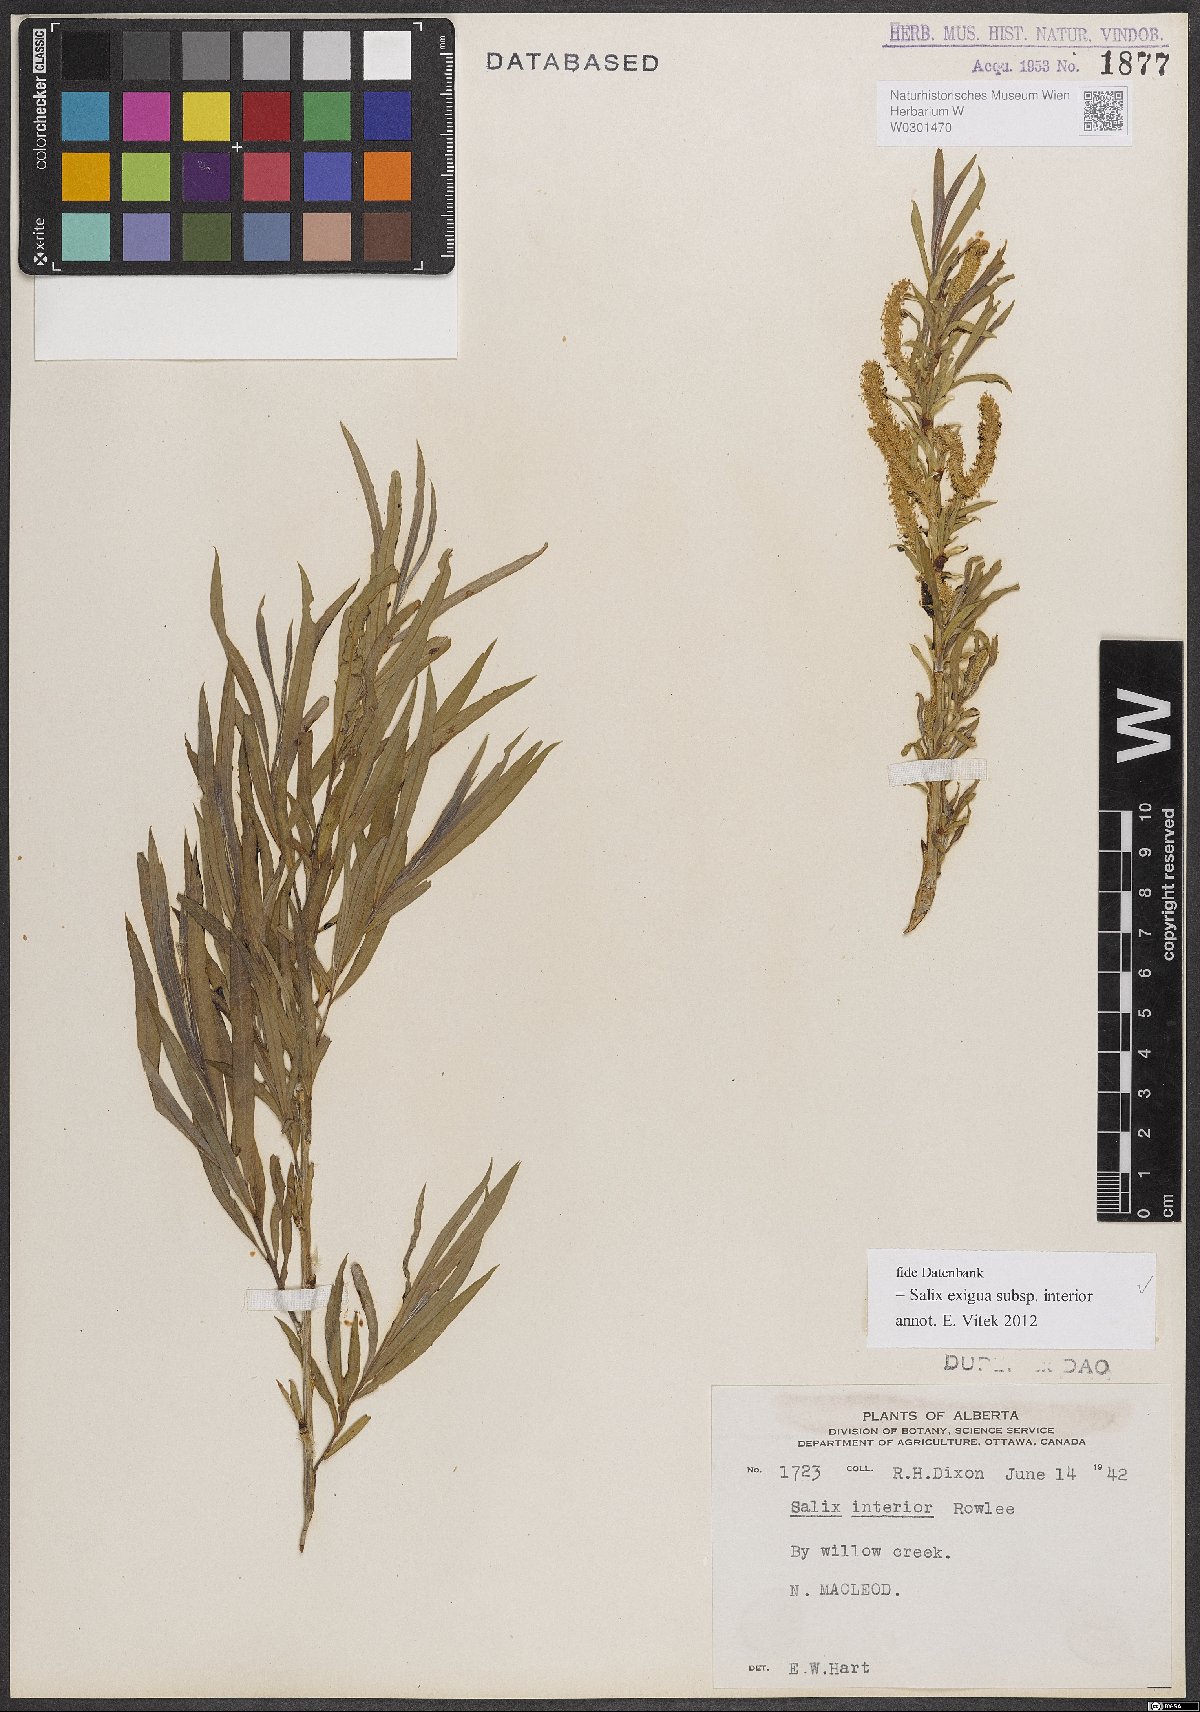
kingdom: Plantae
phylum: Tracheophyta
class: Magnoliopsida
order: Malpighiales
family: Salicaceae
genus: Salix
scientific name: Salix interior
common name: Sandbar willow
